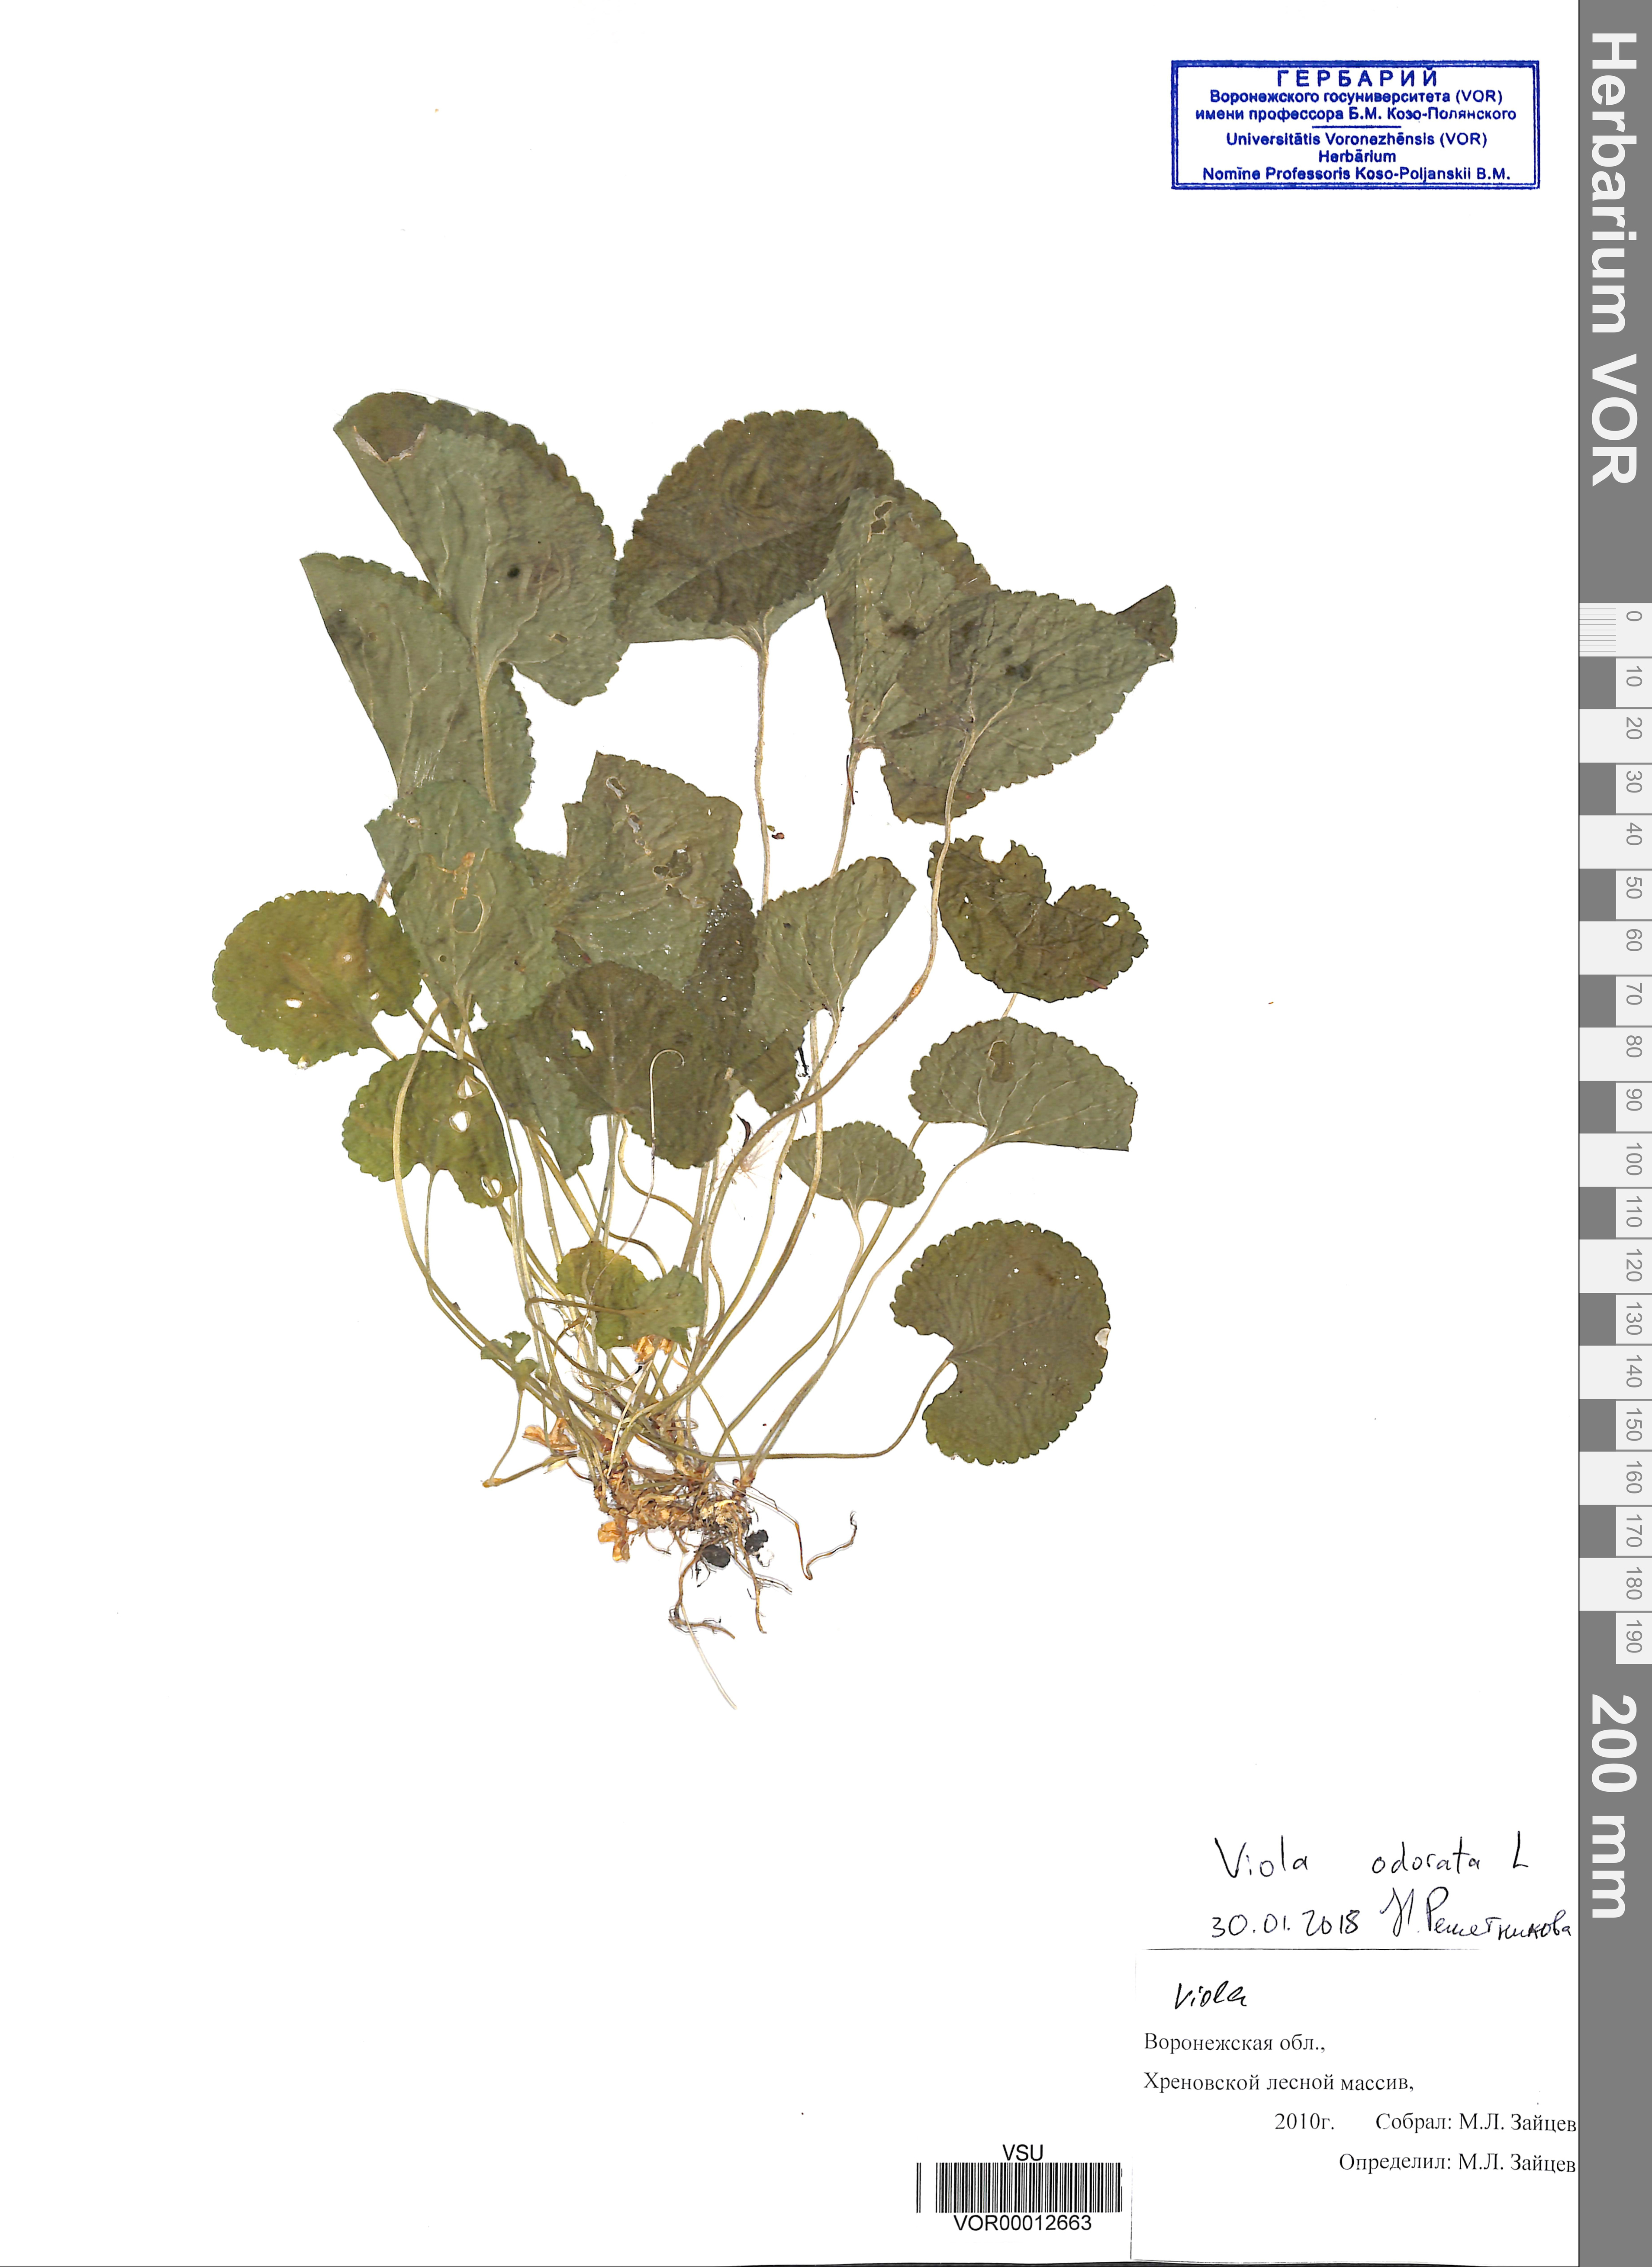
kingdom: Plantae
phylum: Tracheophyta
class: Magnoliopsida
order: Malpighiales
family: Violaceae
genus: Viola
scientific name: Viola odorata
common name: Sweet violet
